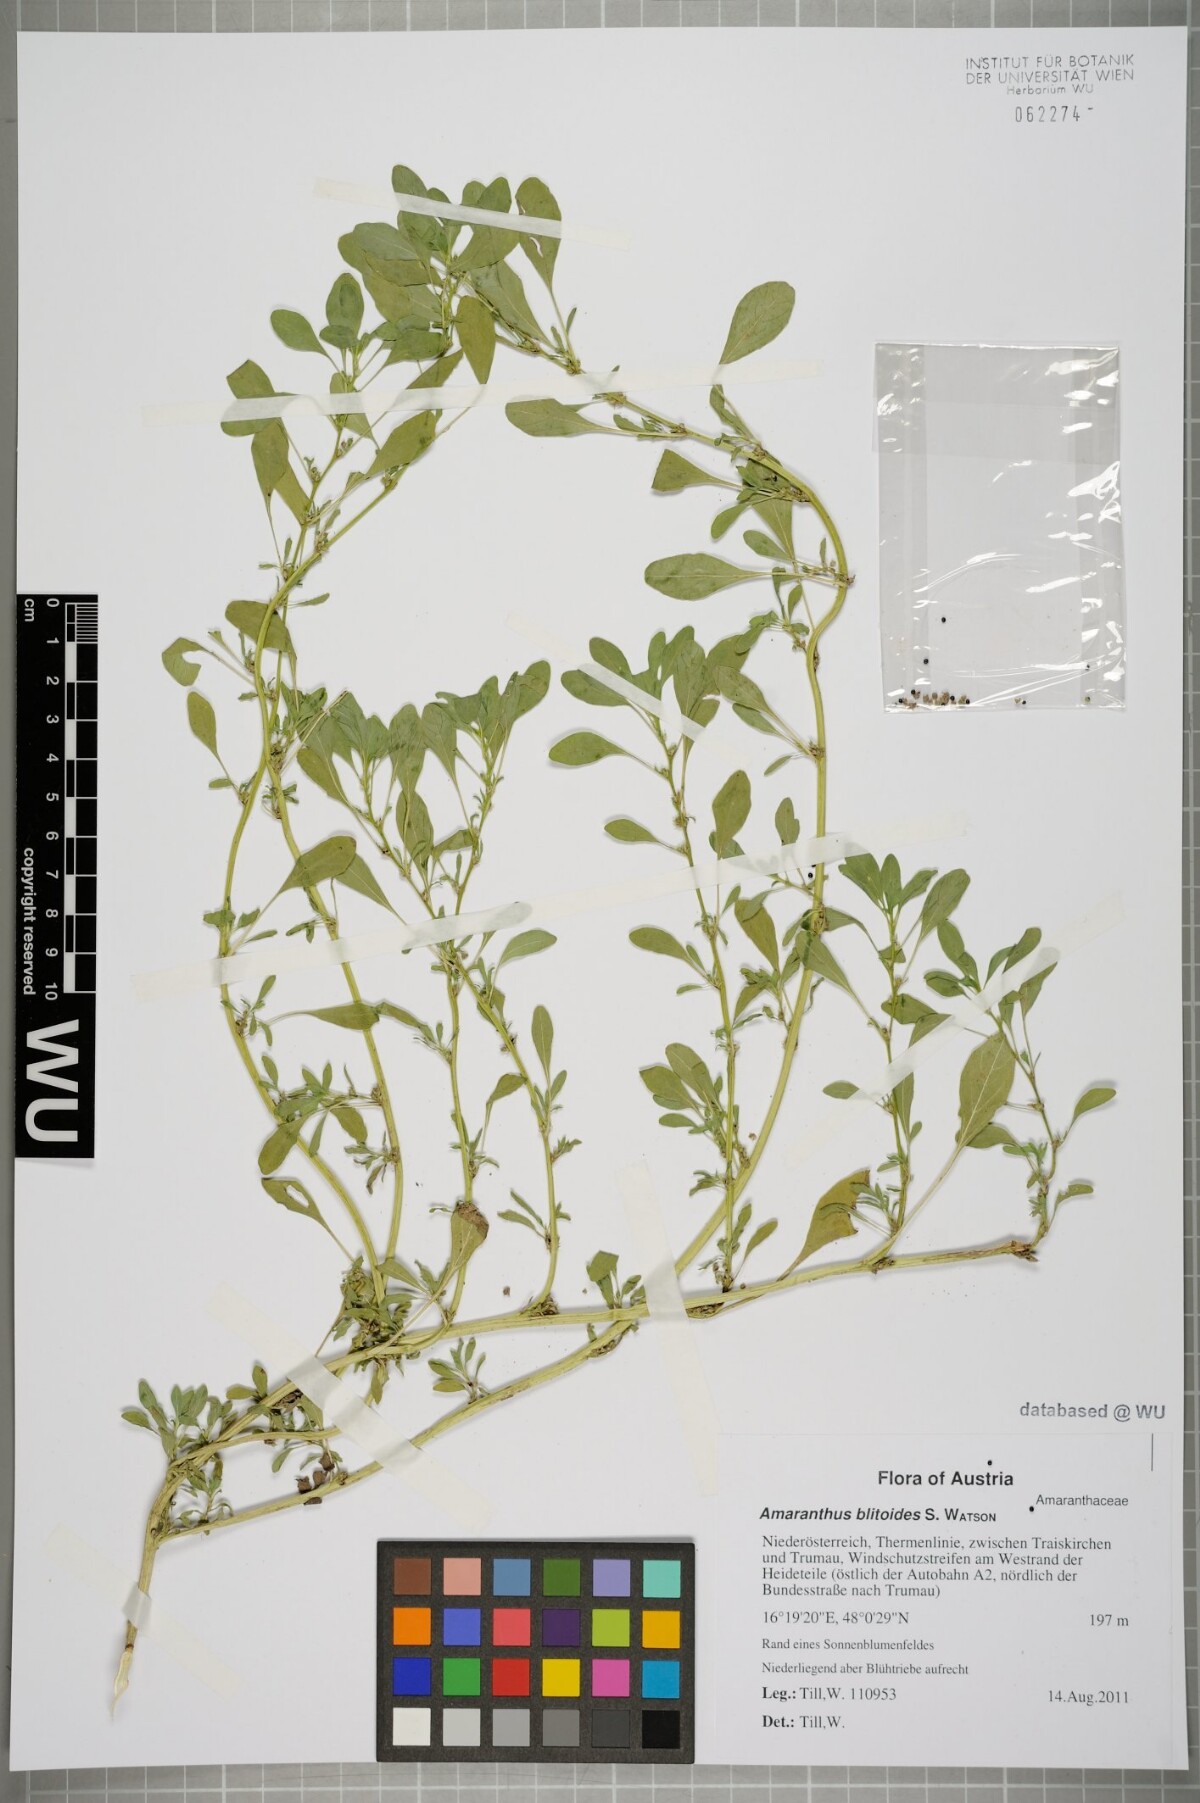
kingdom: Plantae
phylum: Tracheophyta
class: Magnoliopsida
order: Caryophyllales
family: Amaranthaceae
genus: Amaranthus
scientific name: Amaranthus blitoides
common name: Prostrate pigweed
